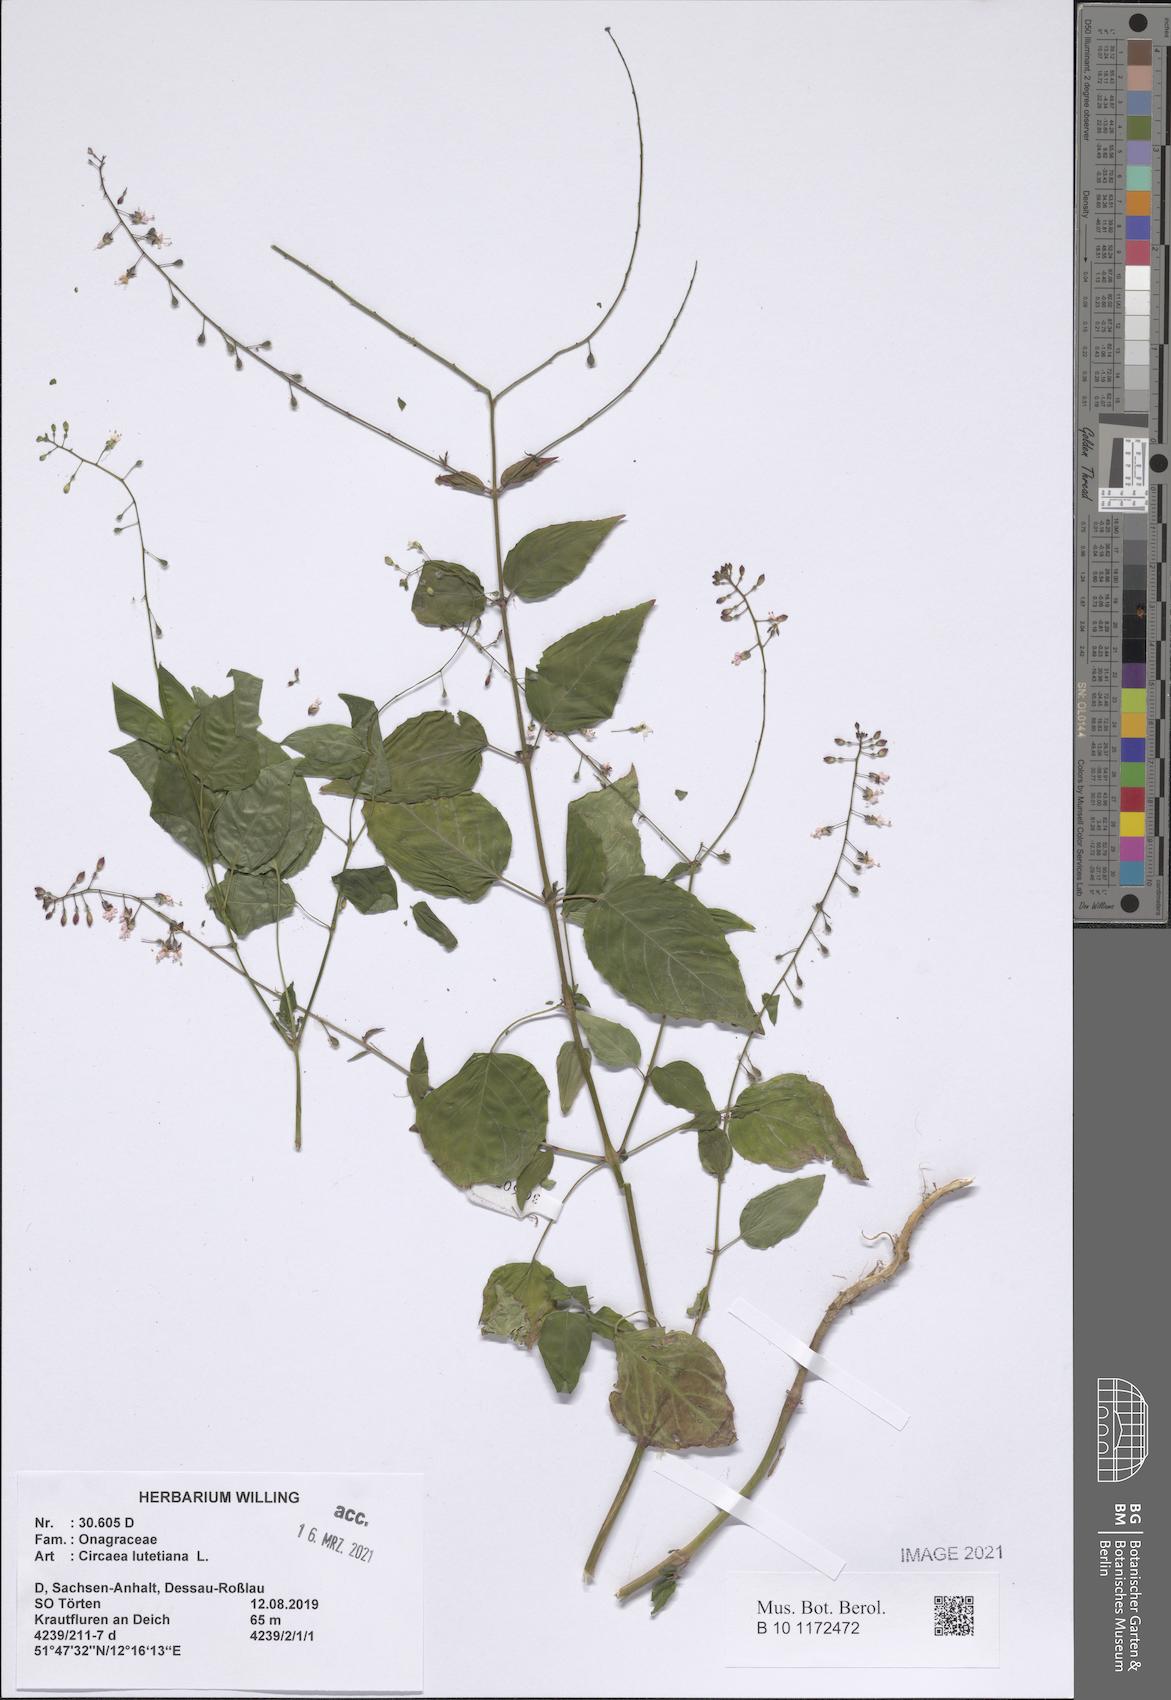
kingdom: Plantae
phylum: Tracheophyta
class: Magnoliopsida
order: Myrtales
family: Onagraceae
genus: Circaea
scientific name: Circaea lutetiana
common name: Enchanter's-nightshade
